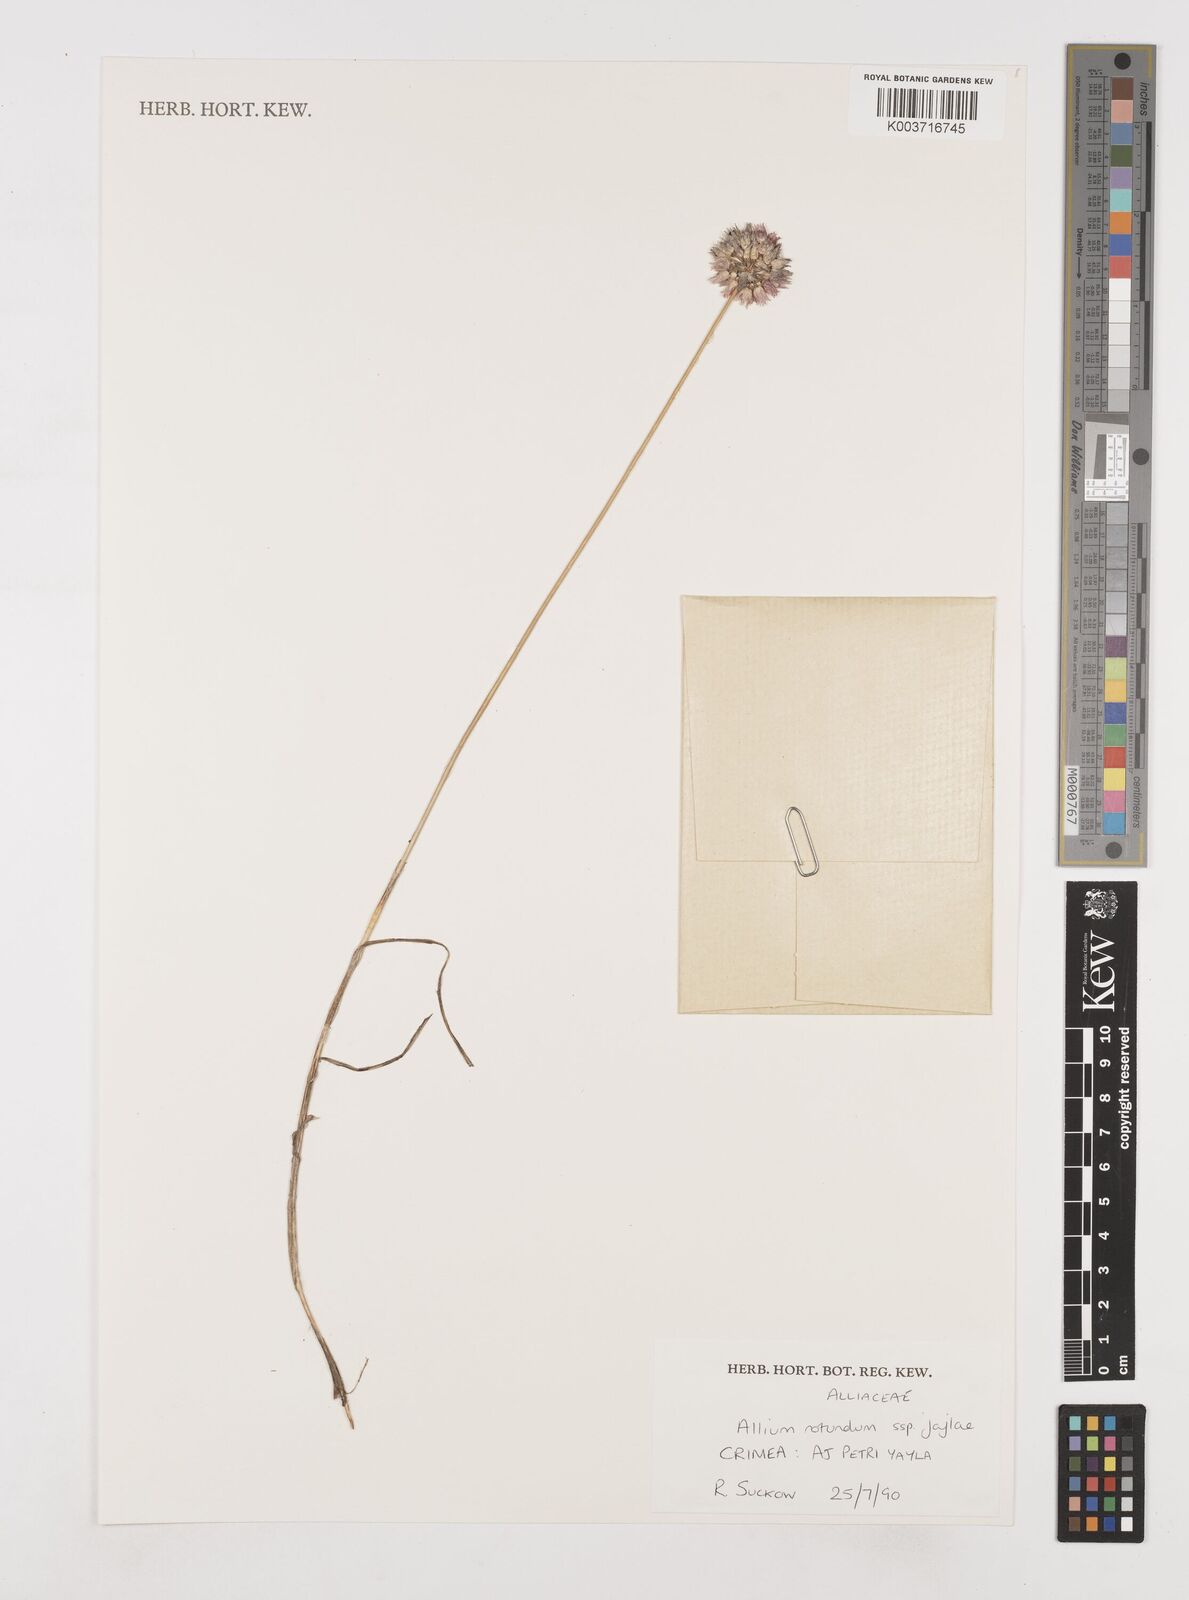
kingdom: Plantae
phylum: Tracheophyta
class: Liliopsida
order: Asparagales
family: Amaryllidaceae
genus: Allium
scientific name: Allium rotundum
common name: Sand leek
